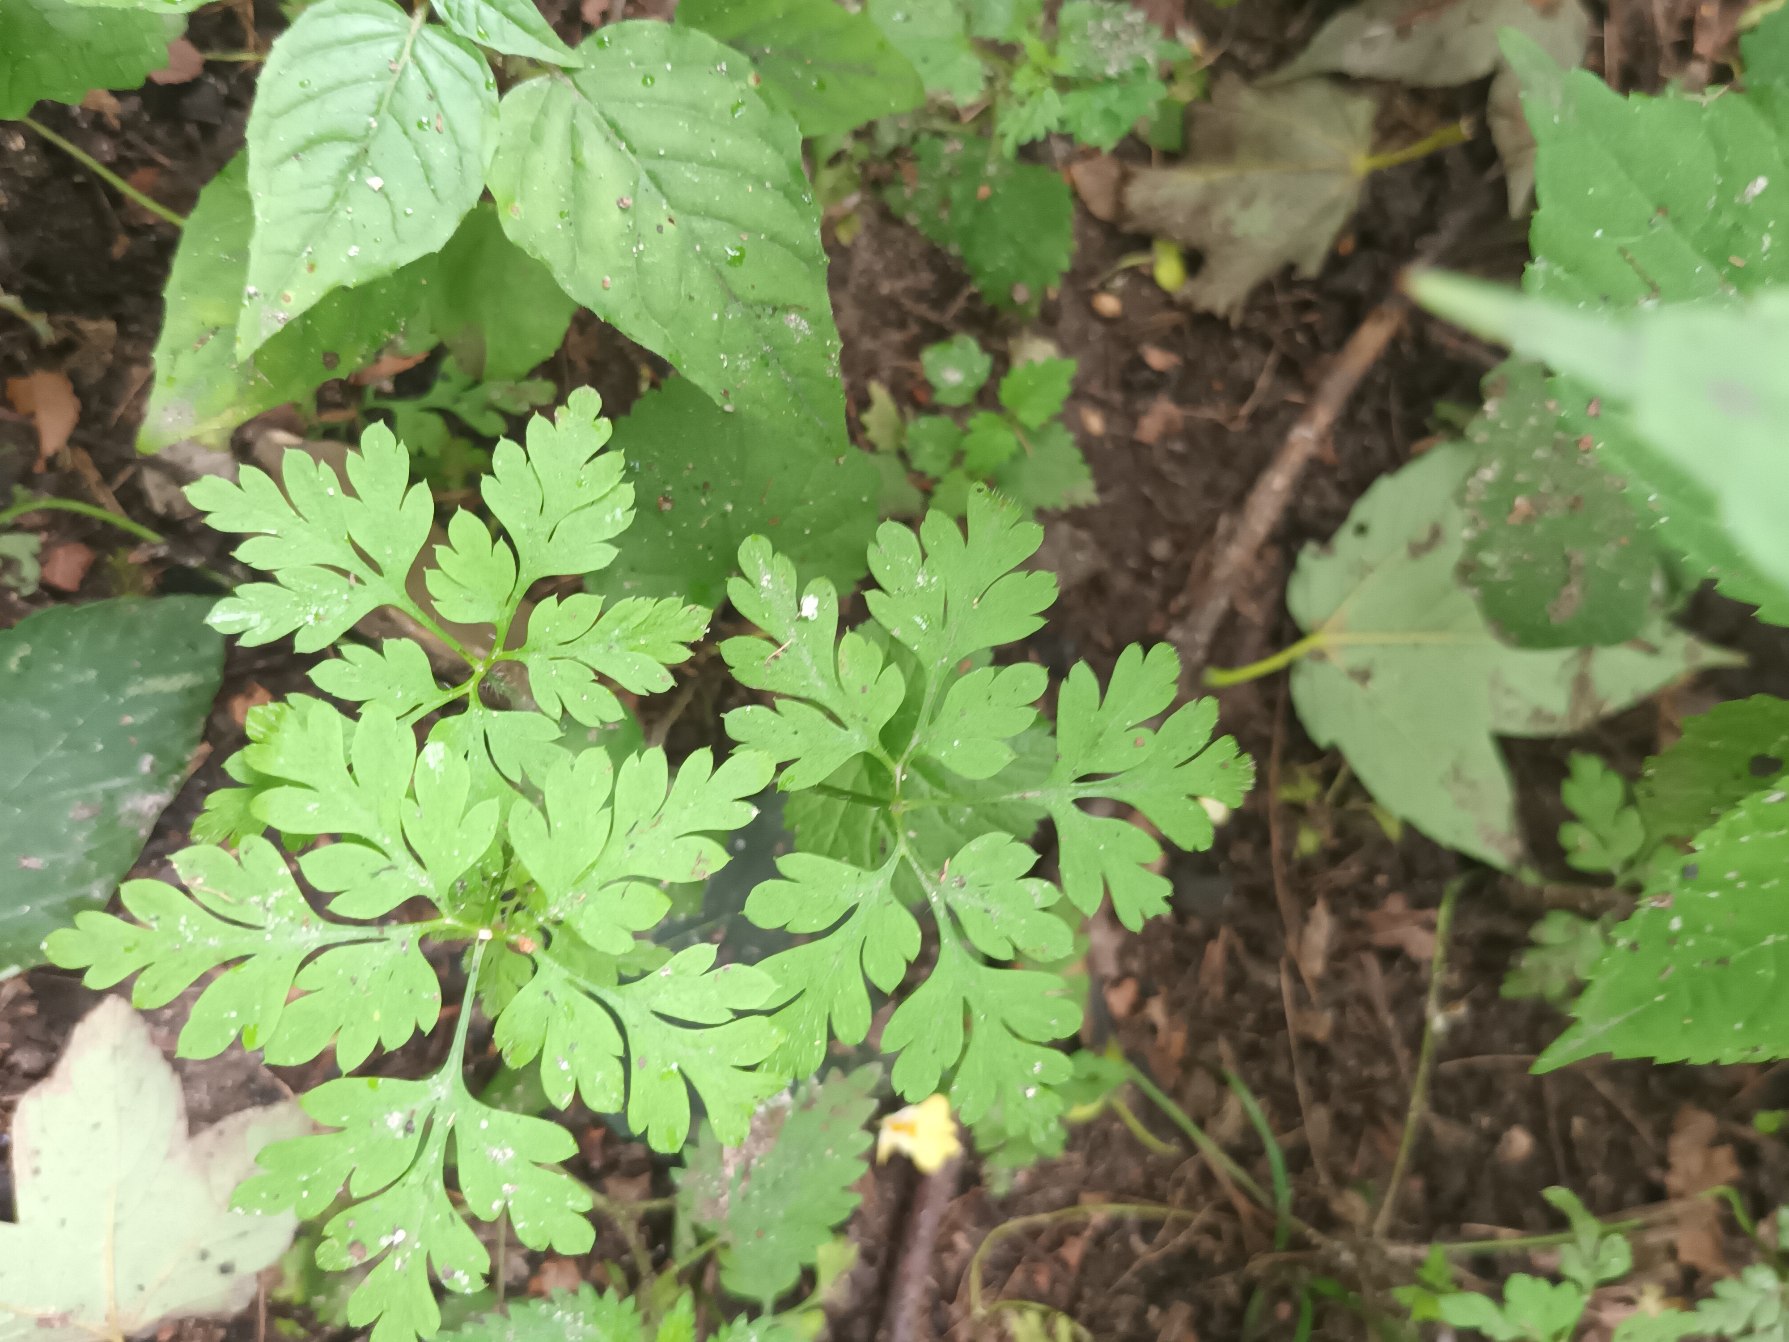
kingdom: Plantae
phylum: Tracheophyta
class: Magnoliopsida
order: Geraniales
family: Geraniaceae
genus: Geranium
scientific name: Geranium robertianum
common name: Stinkende storkenæb
